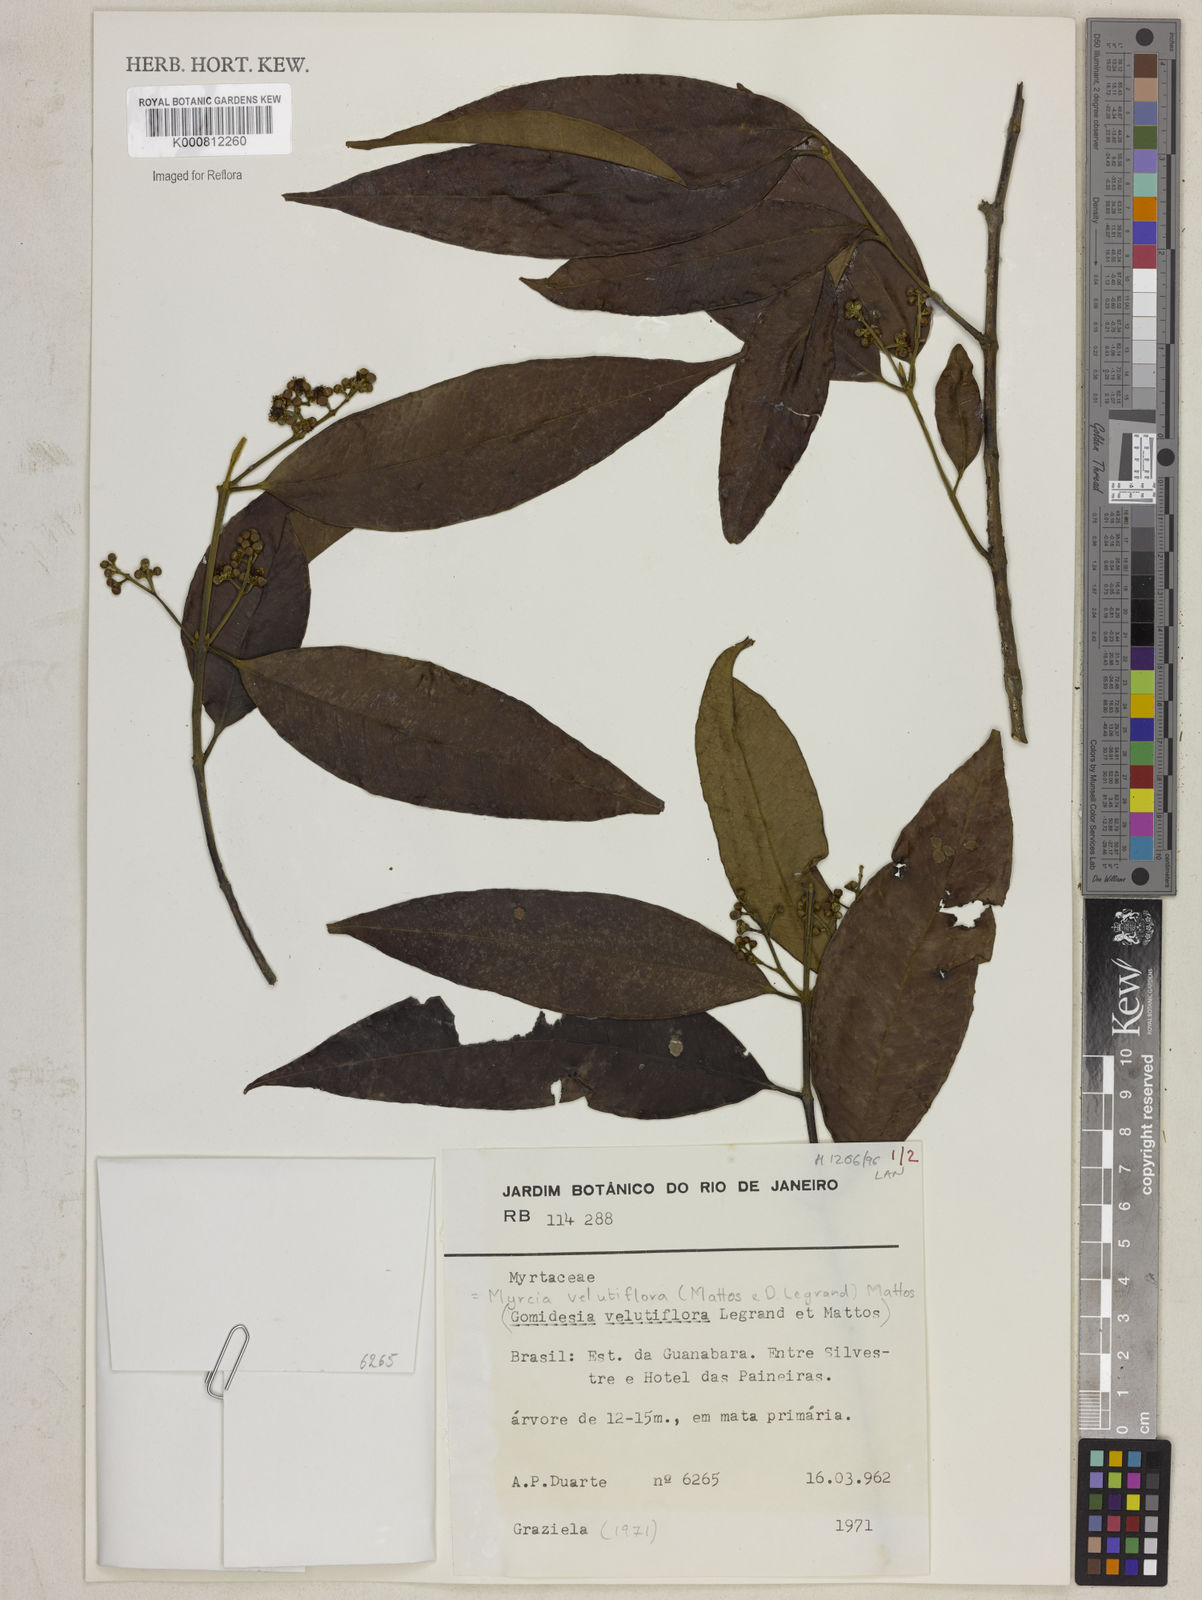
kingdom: Plantae
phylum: Tracheophyta
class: Magnoliopsida
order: Myrtales
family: Myrtaceae
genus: Myrcia
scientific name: Myrcia velutiflora
